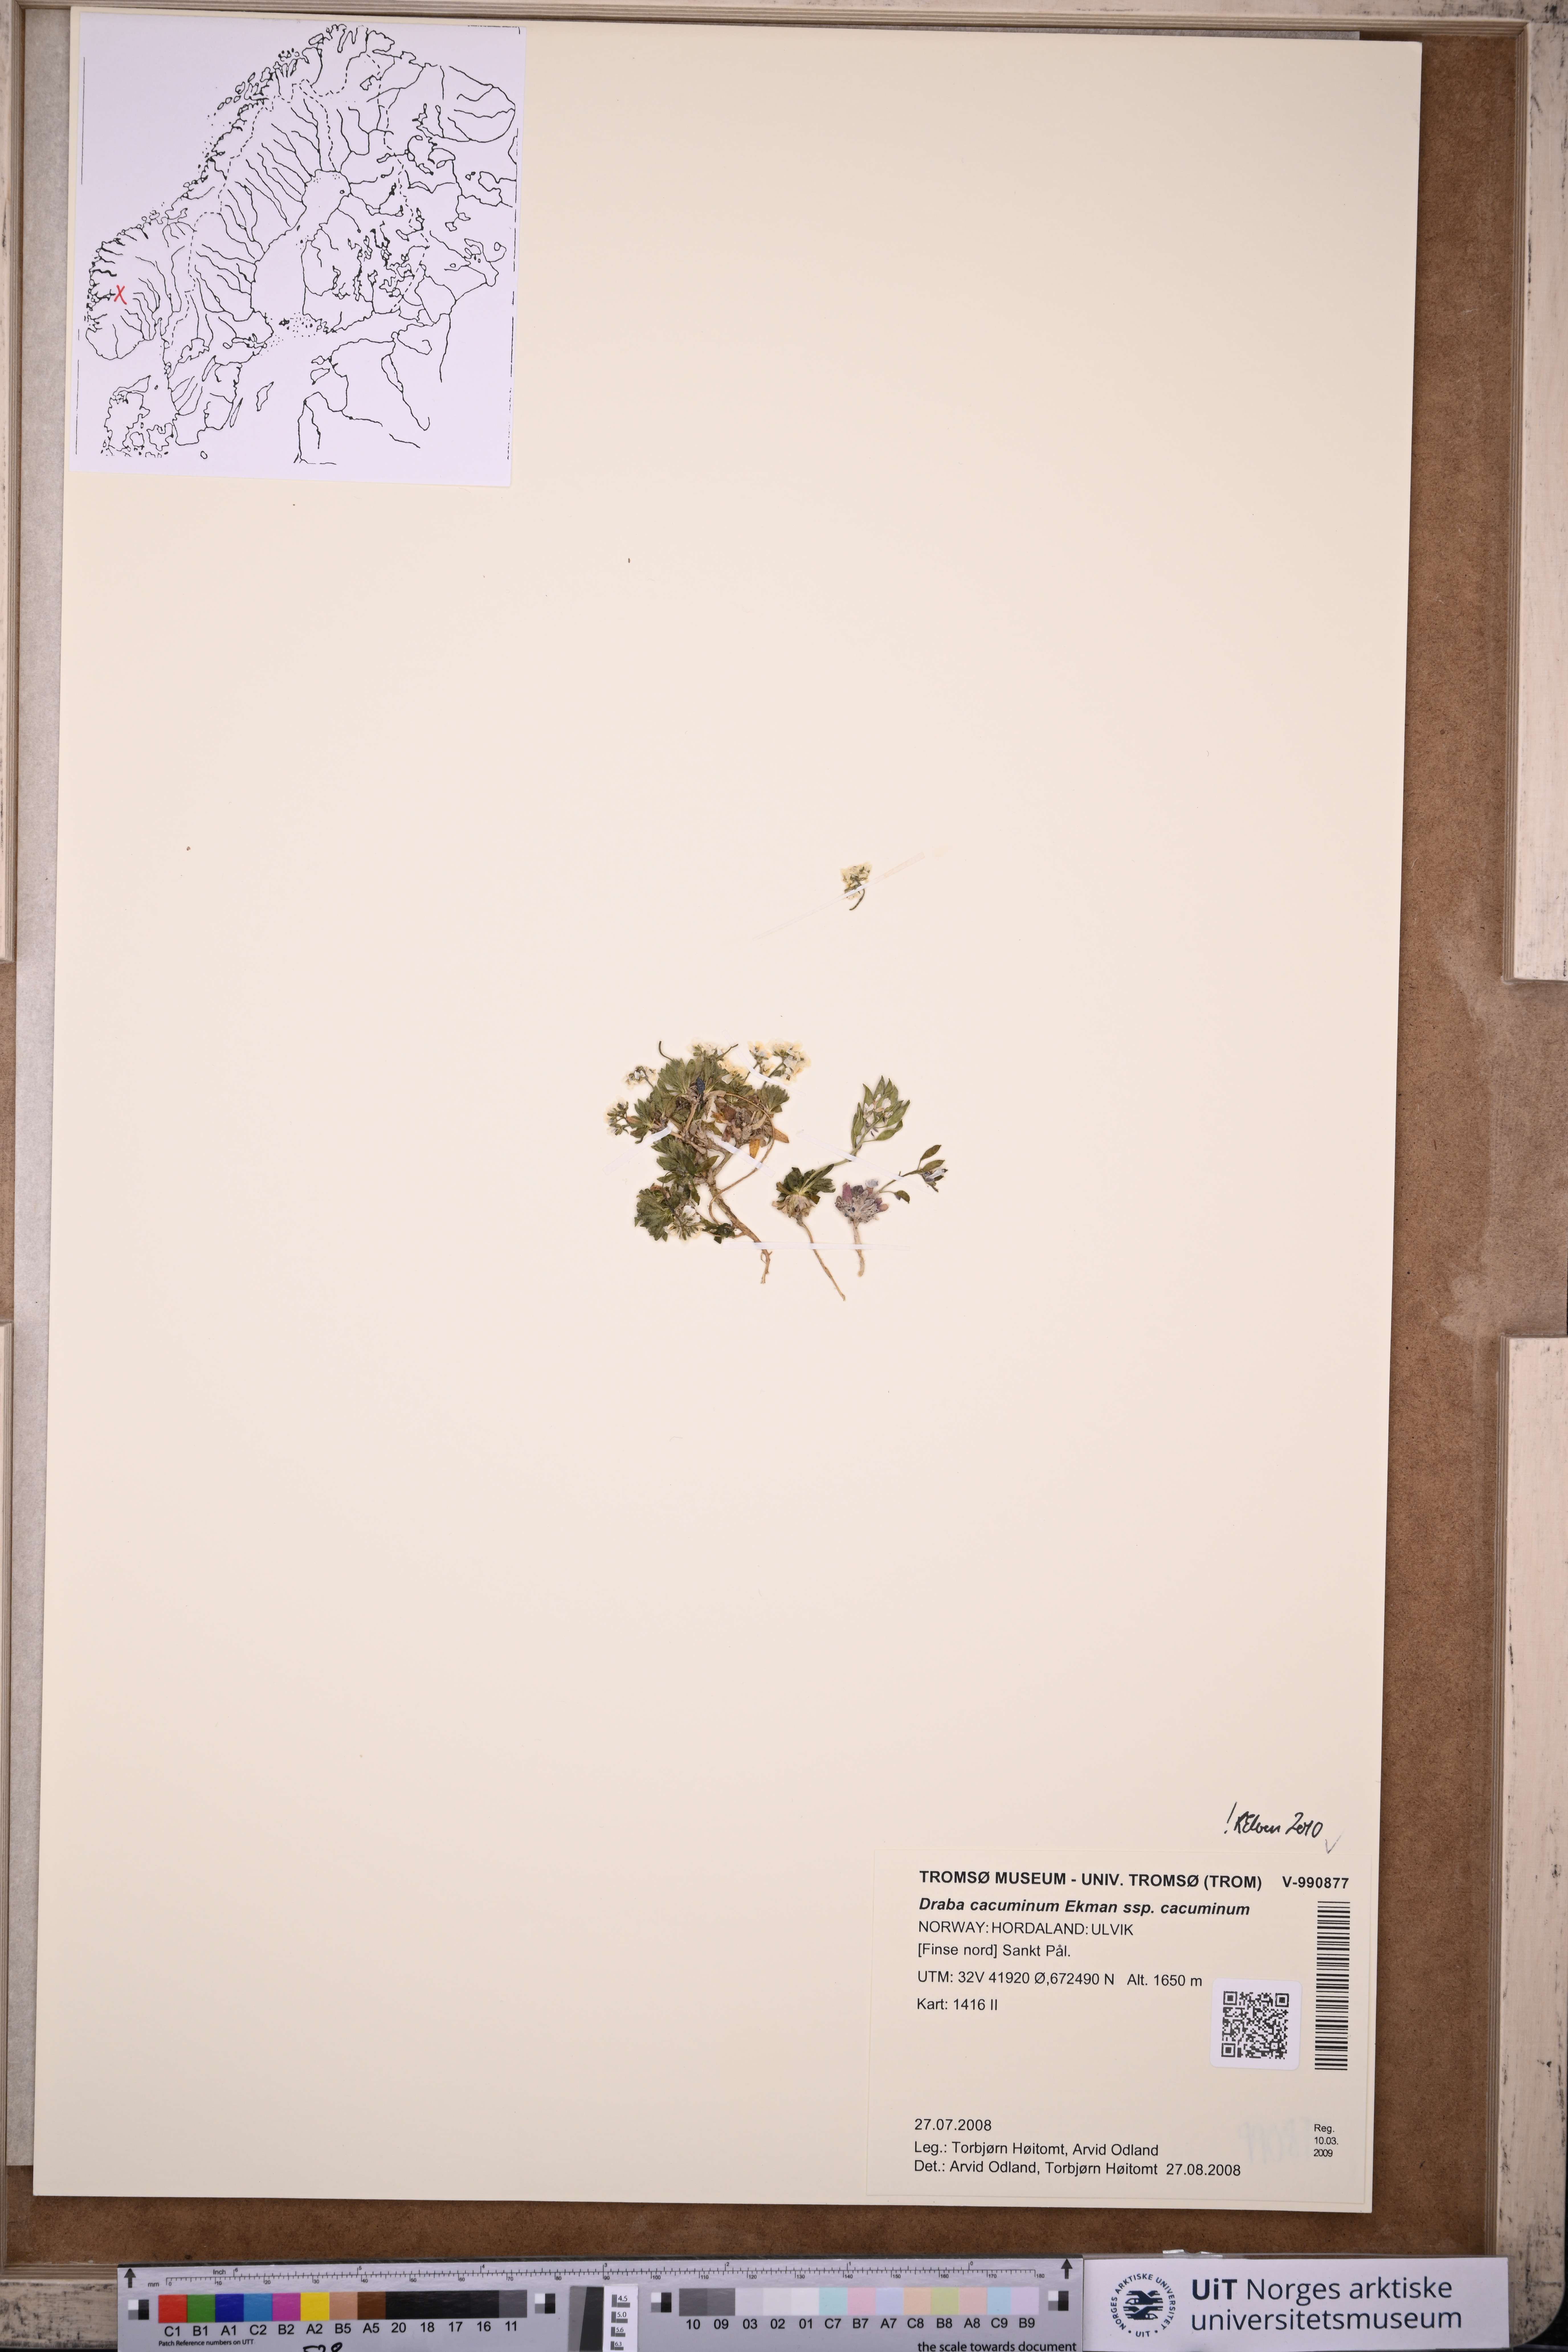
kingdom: Plantae
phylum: Tracheophyta
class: Magnoliopsida
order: Brassicales
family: Brassicaceae
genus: Draba
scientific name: Draba cacuminum
